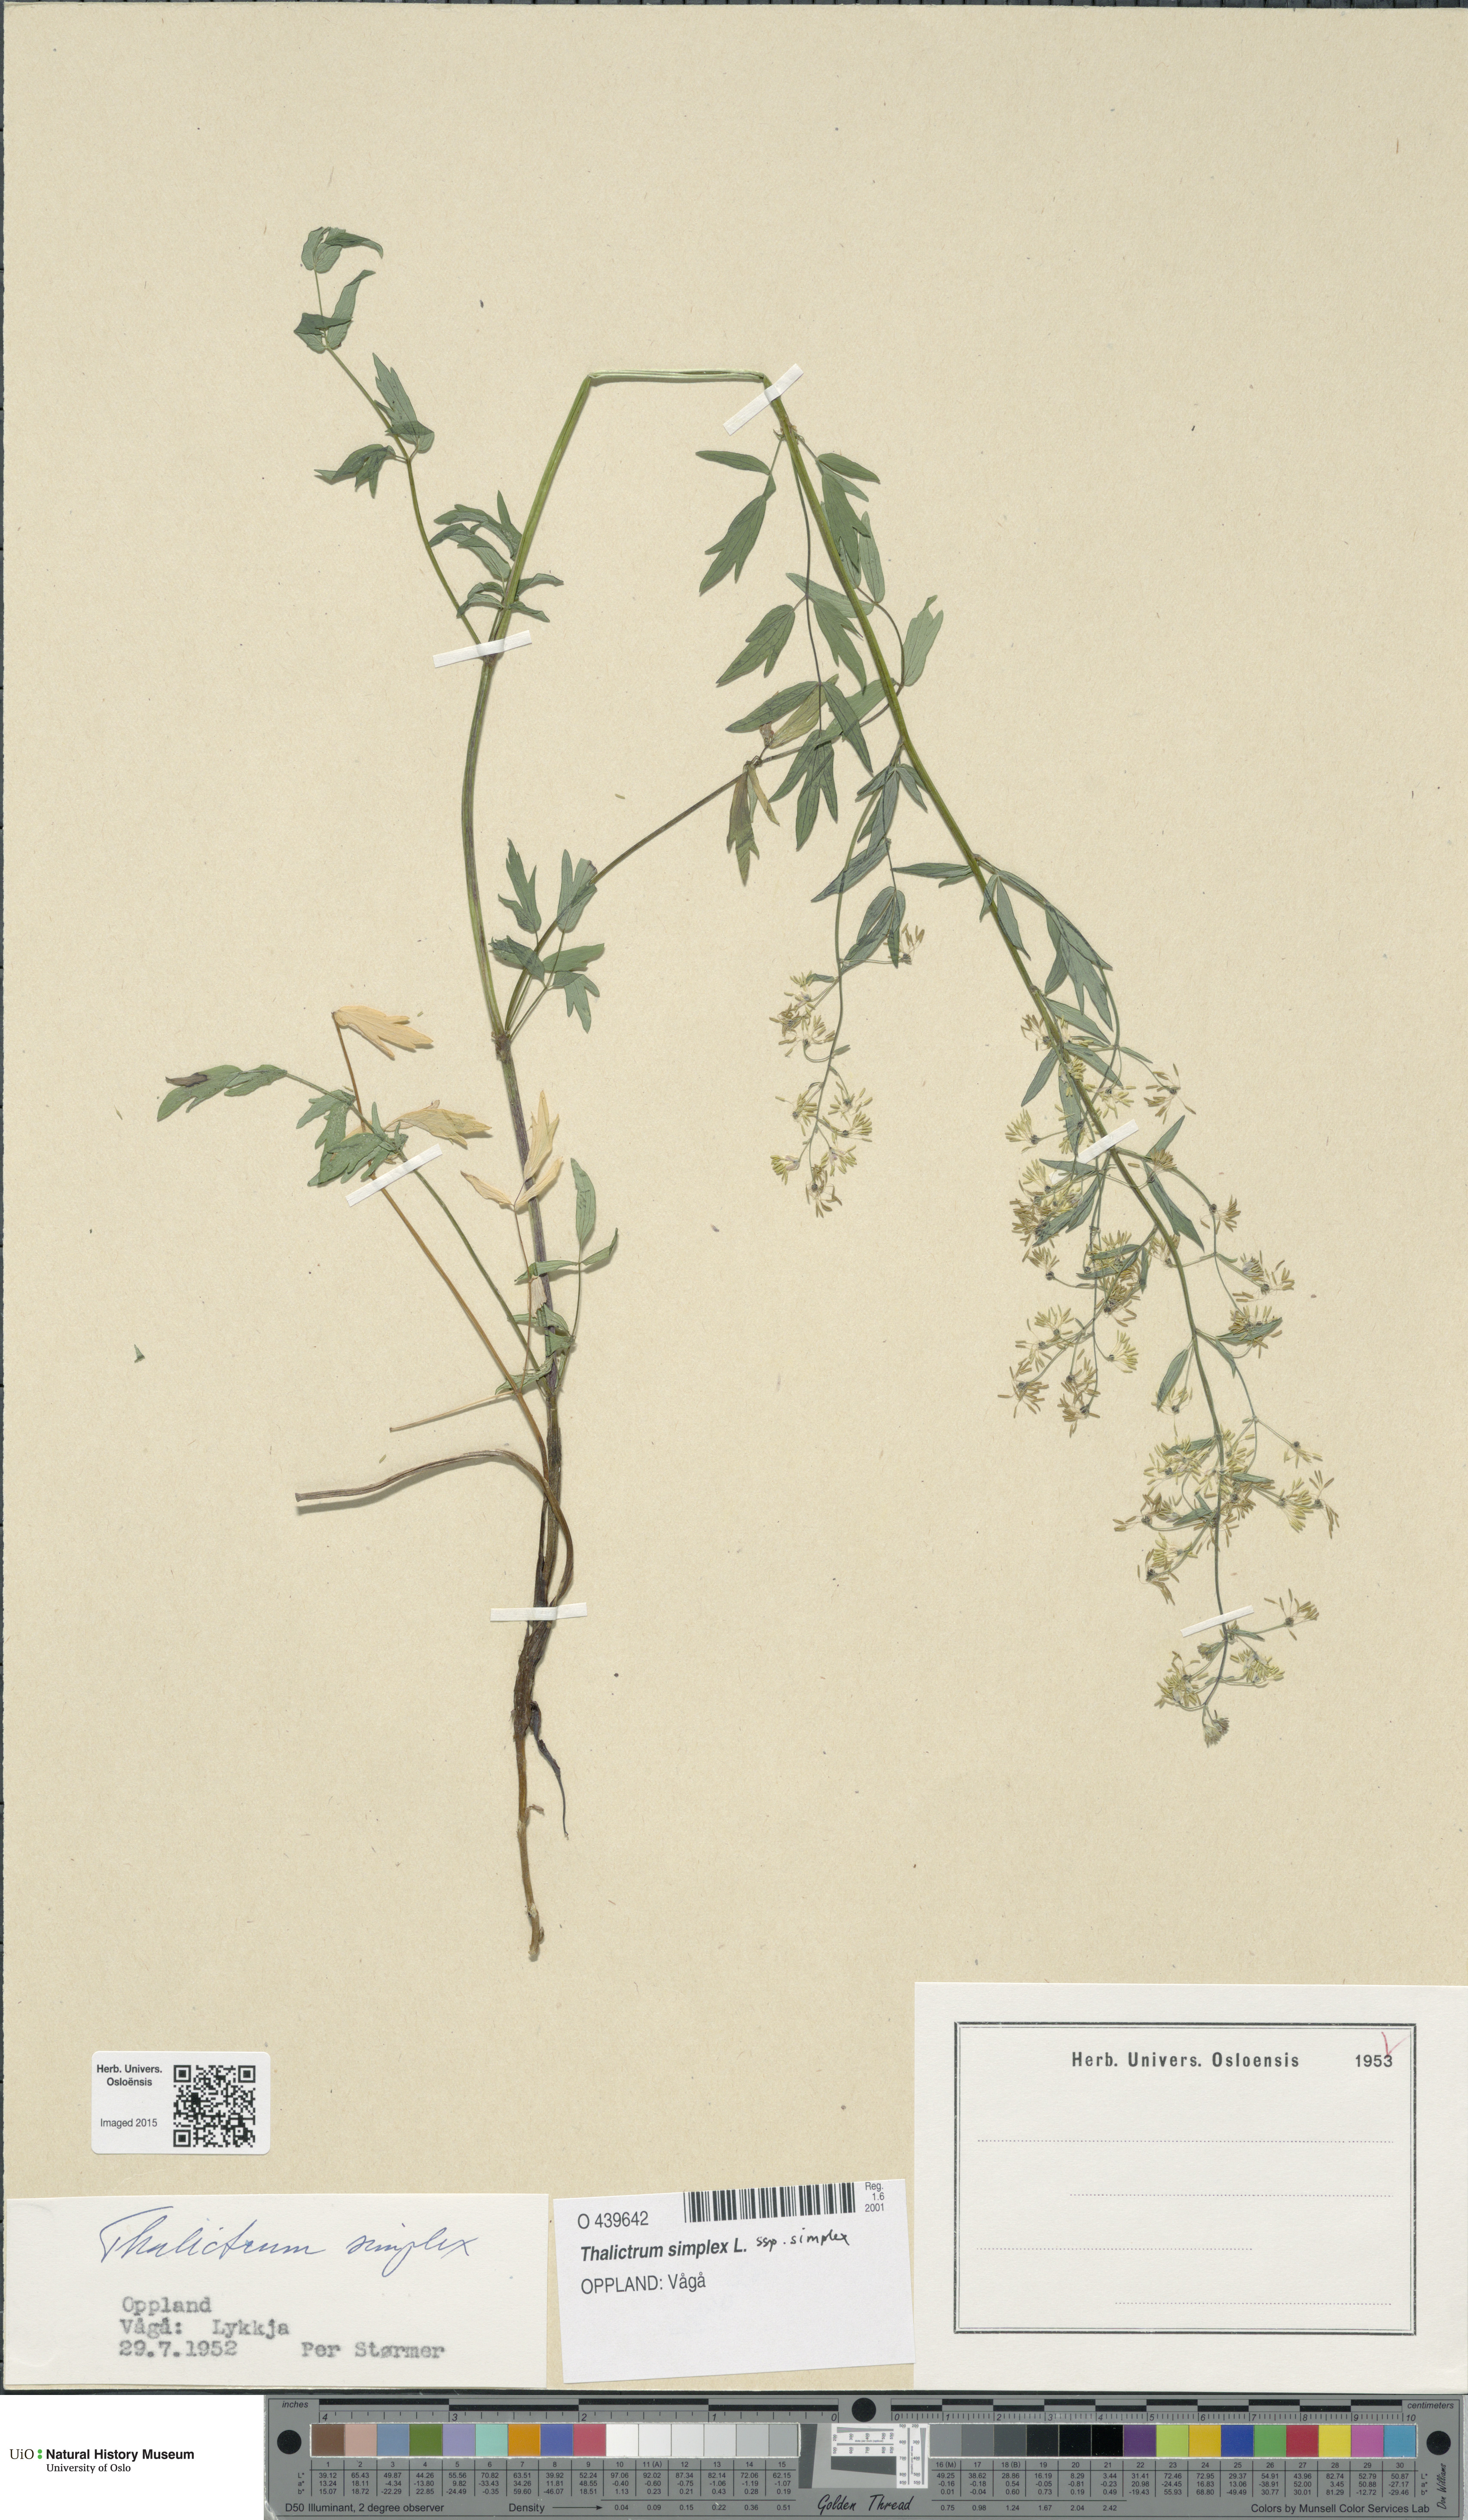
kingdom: Plantae
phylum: Tracheophyta
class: Magnoliopsida
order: Ranunculales
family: Ranunculaceae
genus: Thalictrum
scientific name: Thalictrum simplex
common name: Small meadow-rue
